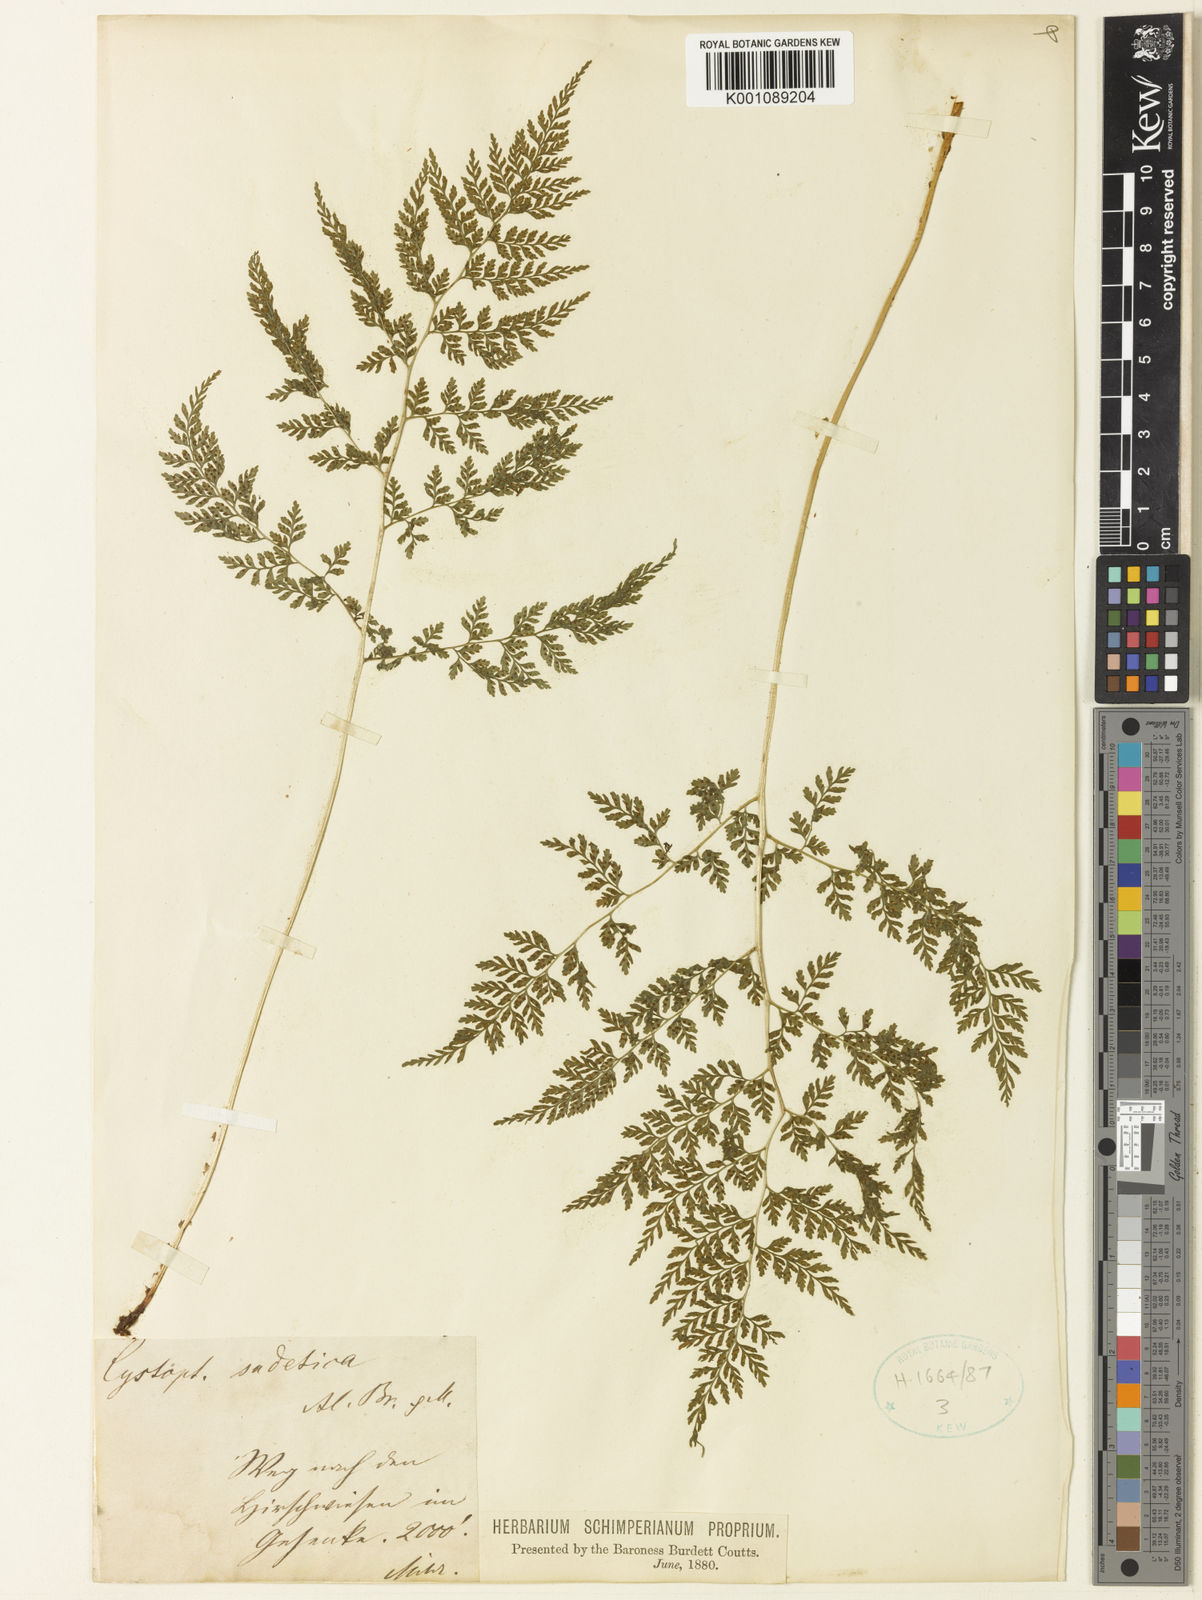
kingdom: Plantae
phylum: Tracheophyta
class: Polypodiopsida
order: Polypodiales
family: Cystopteridaceae
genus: Cystopteris
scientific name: Cystopteris sudetica
